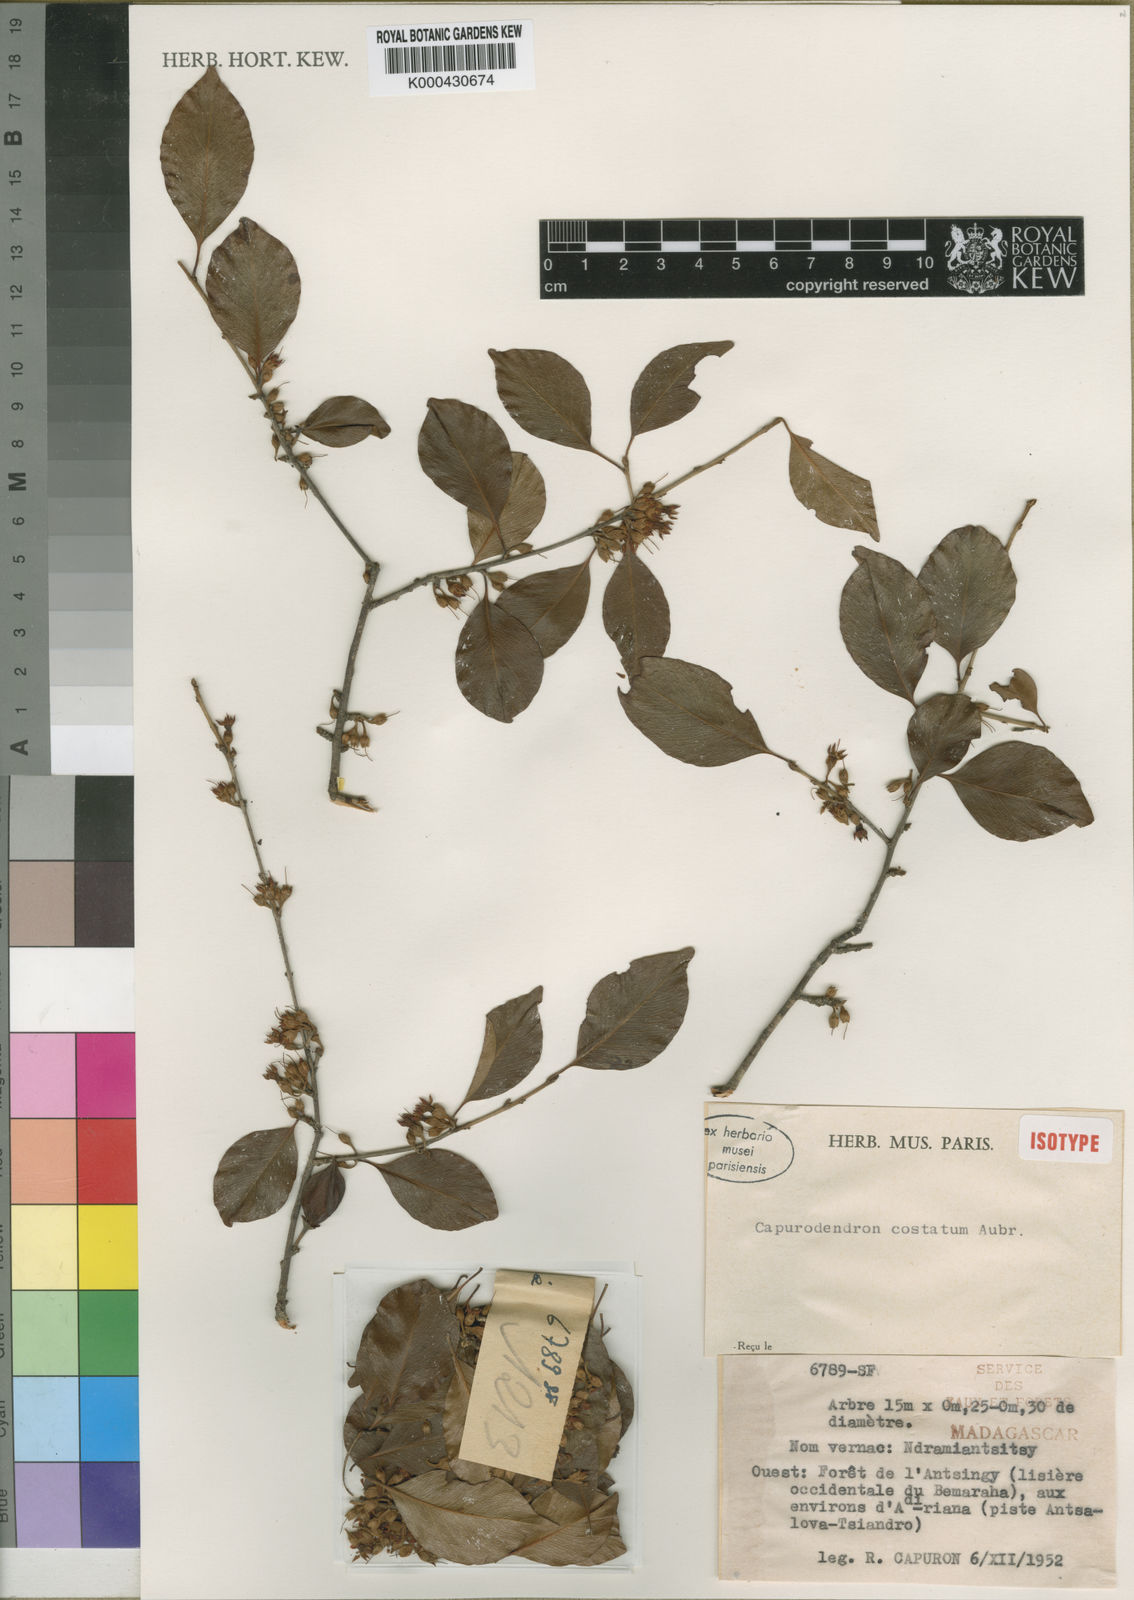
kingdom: Plantae
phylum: Tracheophyta
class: Magnoliopsida
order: Ericales
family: Sapotaceae
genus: Capurodendron
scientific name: Capurodendron
